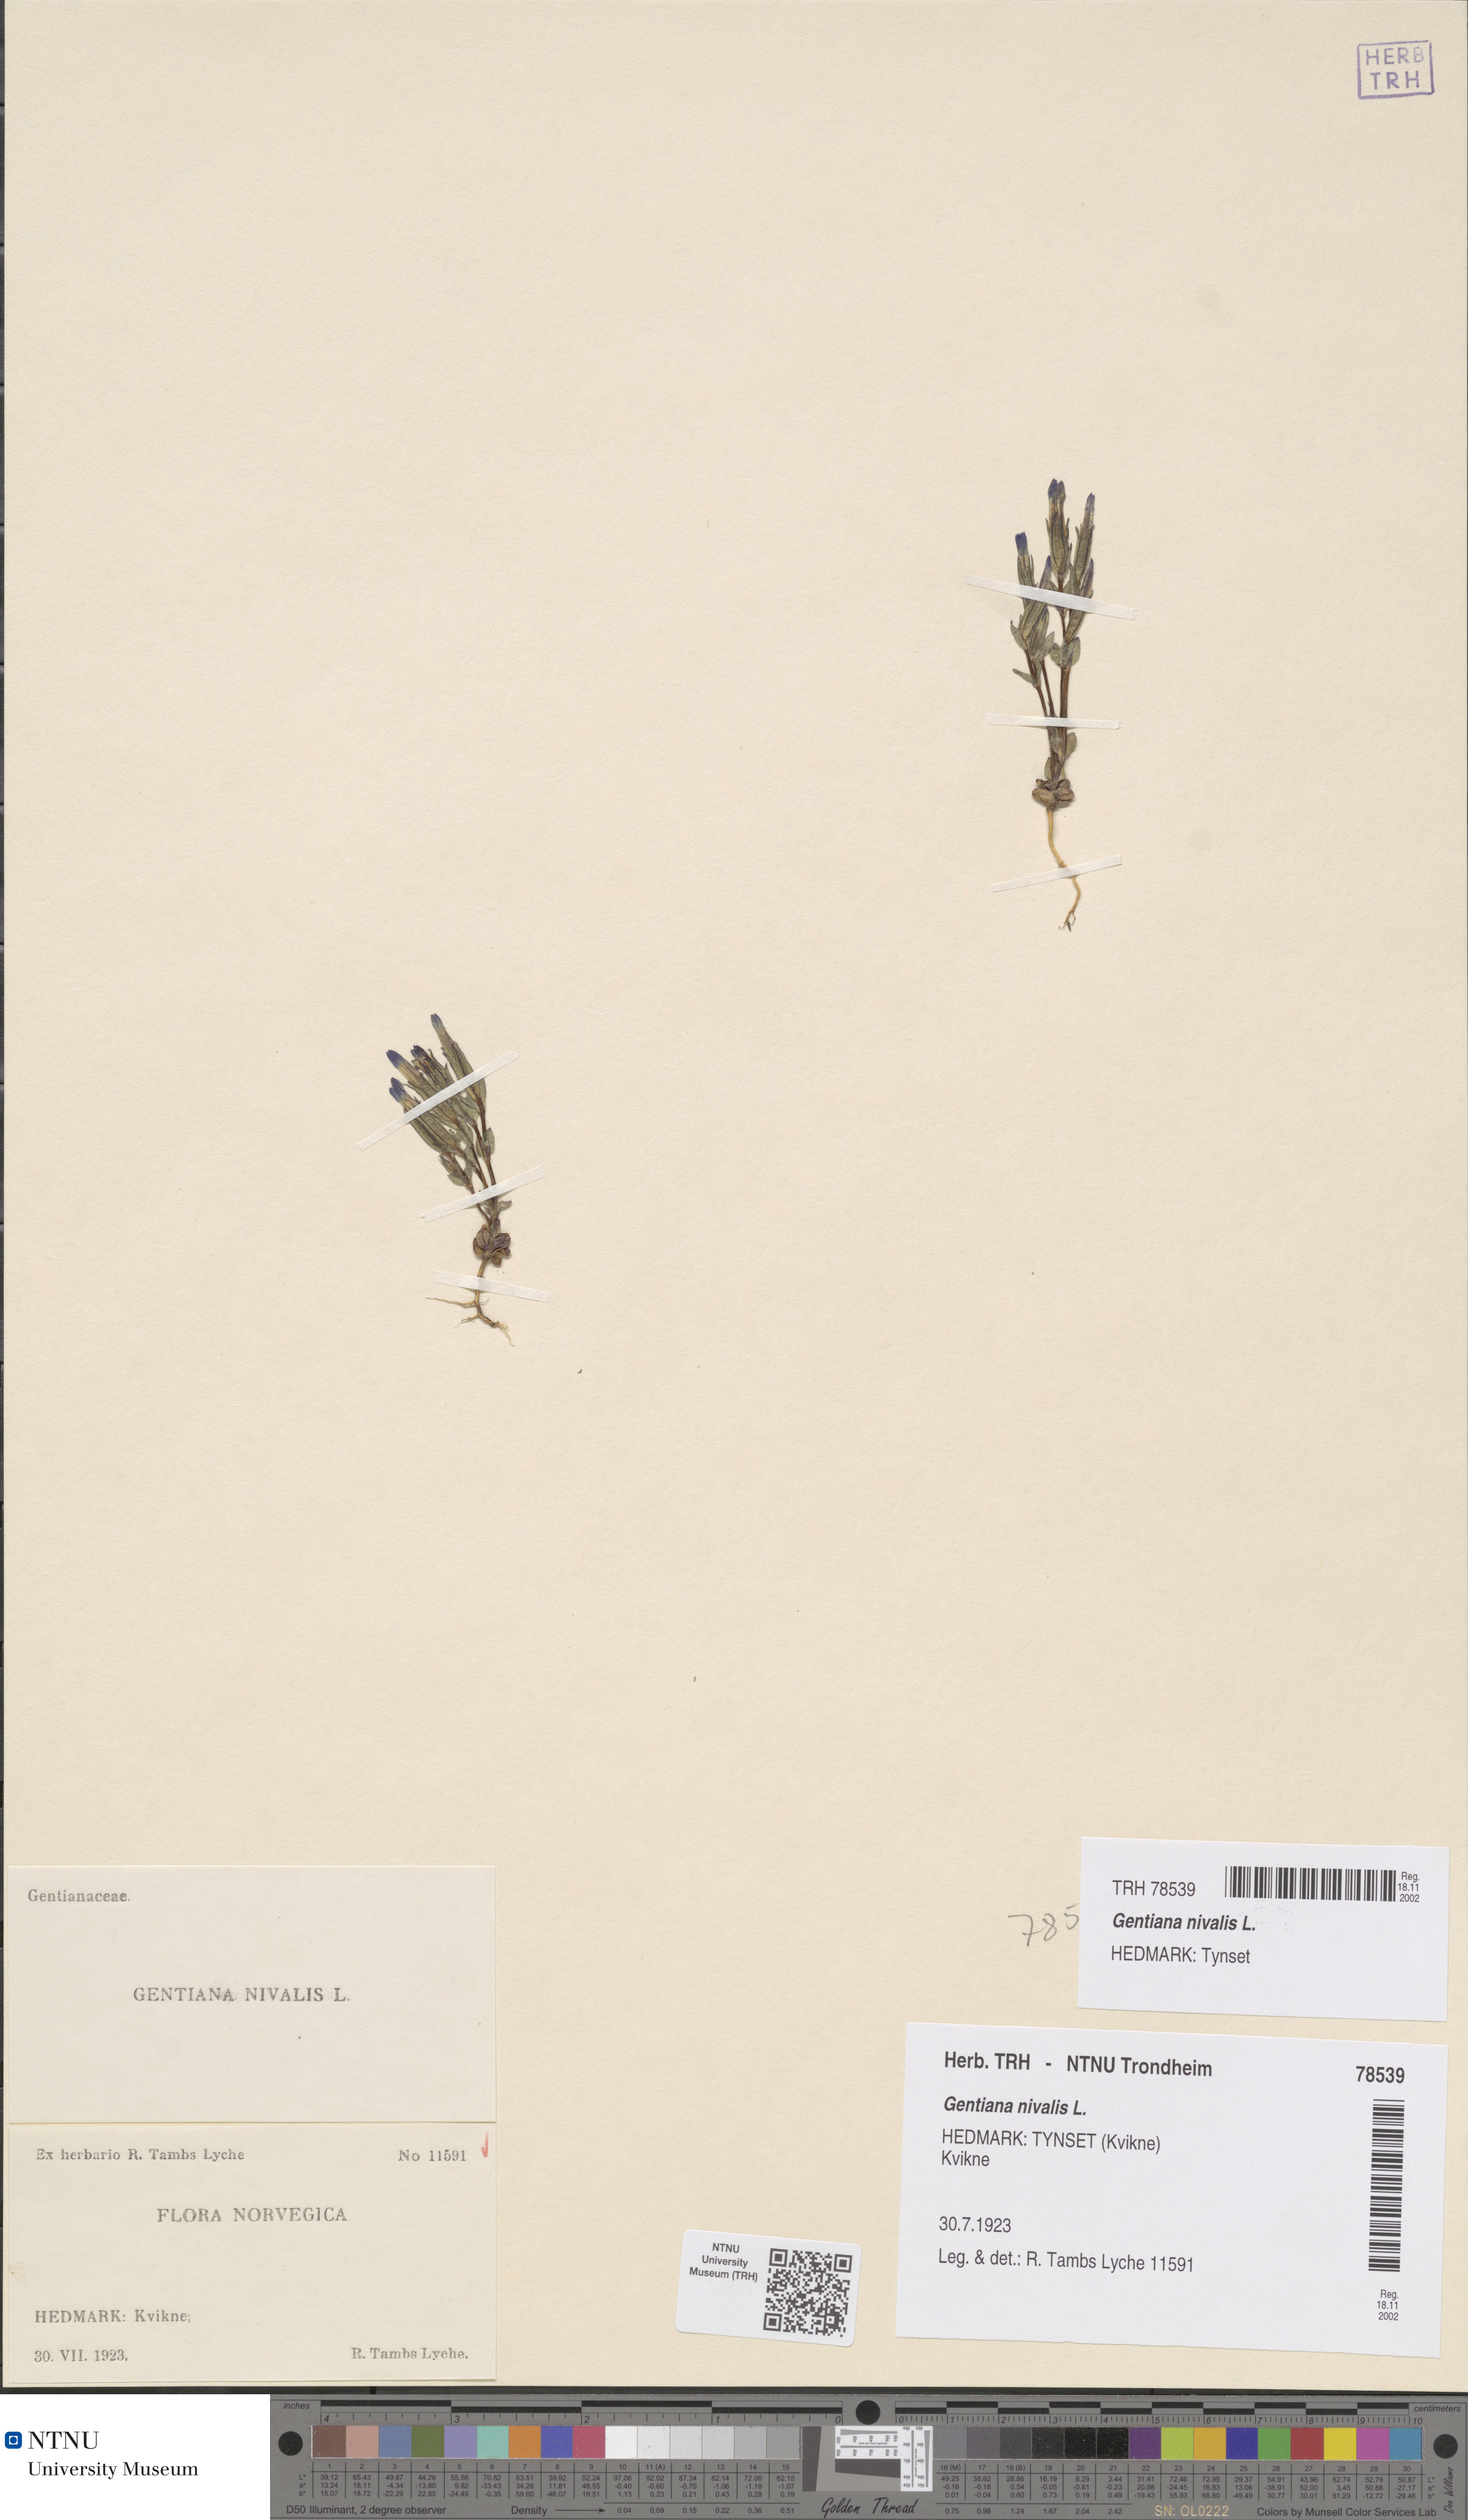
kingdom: Plantae
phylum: Tracheophyta
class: Magnoliopsida
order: Gentianales
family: Gentianaceae
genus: Gentiana
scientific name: Gentiana nivalis
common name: Alpine gentian
